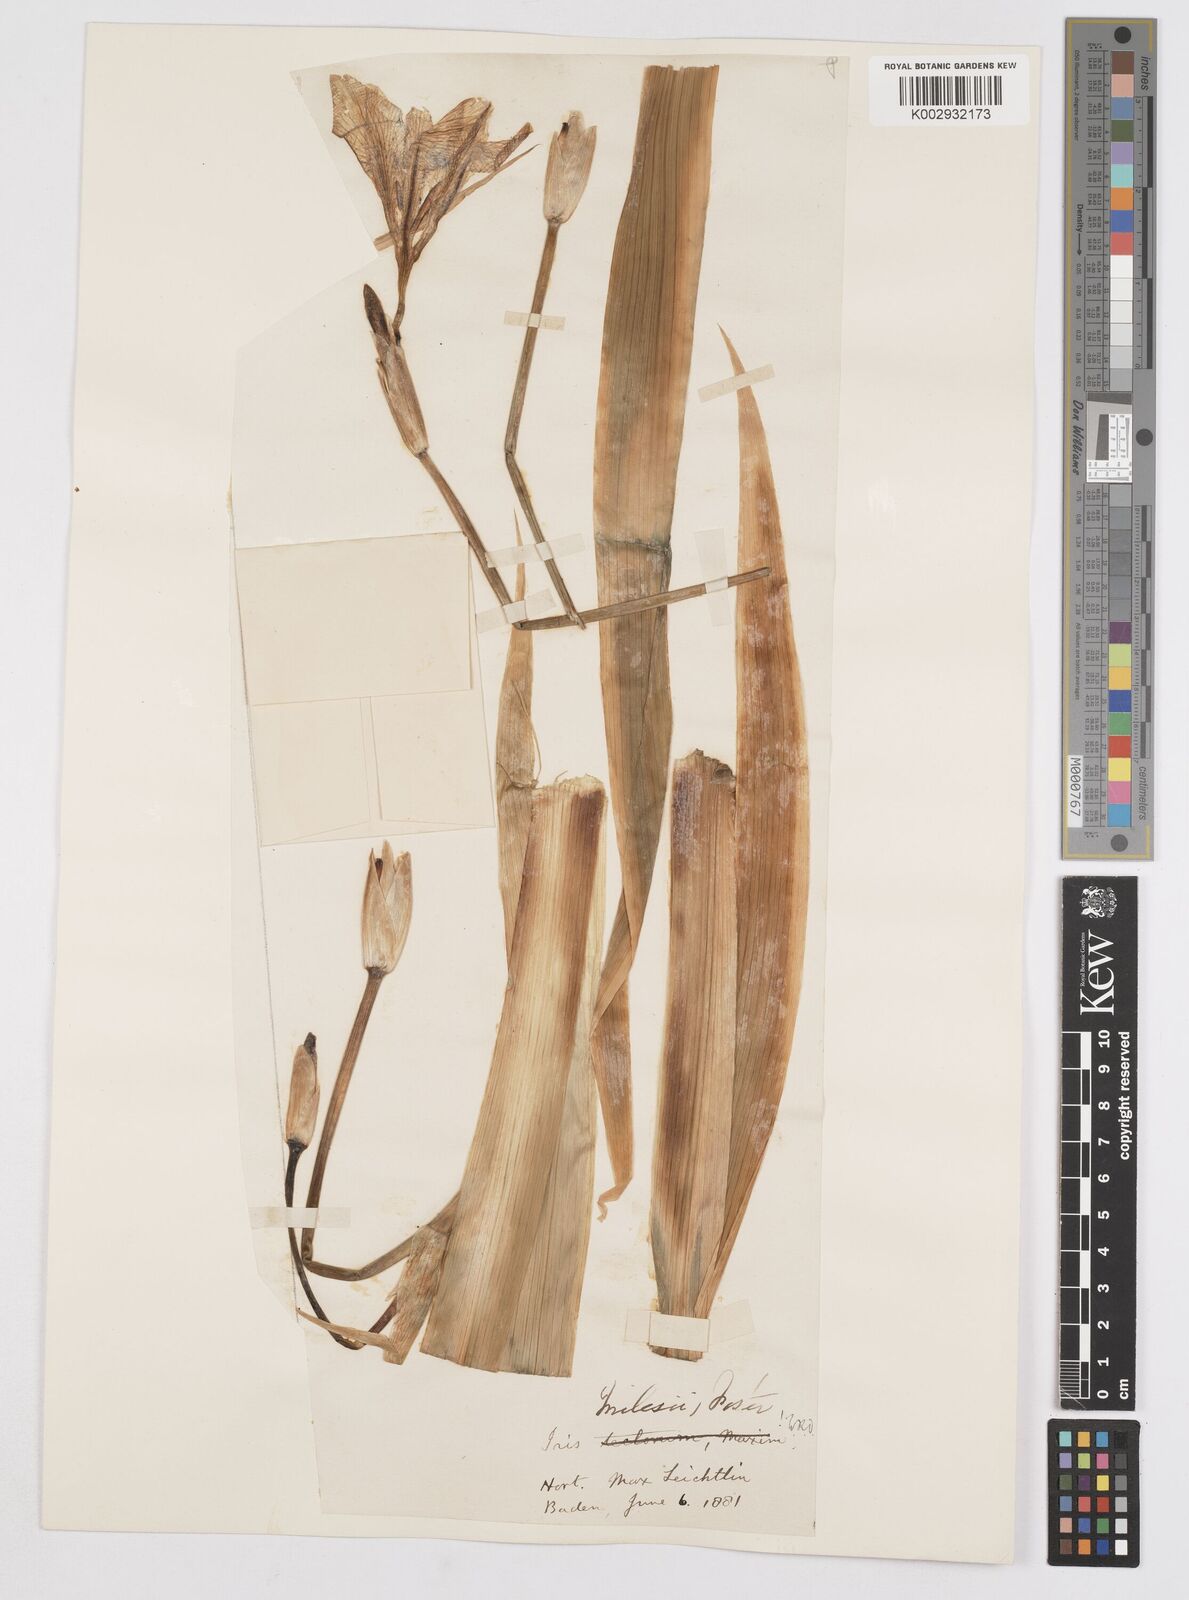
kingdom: Plantae
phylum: Tracheophyta
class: Liliopsida
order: Asparagales
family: Iridaceae
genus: Iris
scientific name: Iris milesii
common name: Red-flower iris
